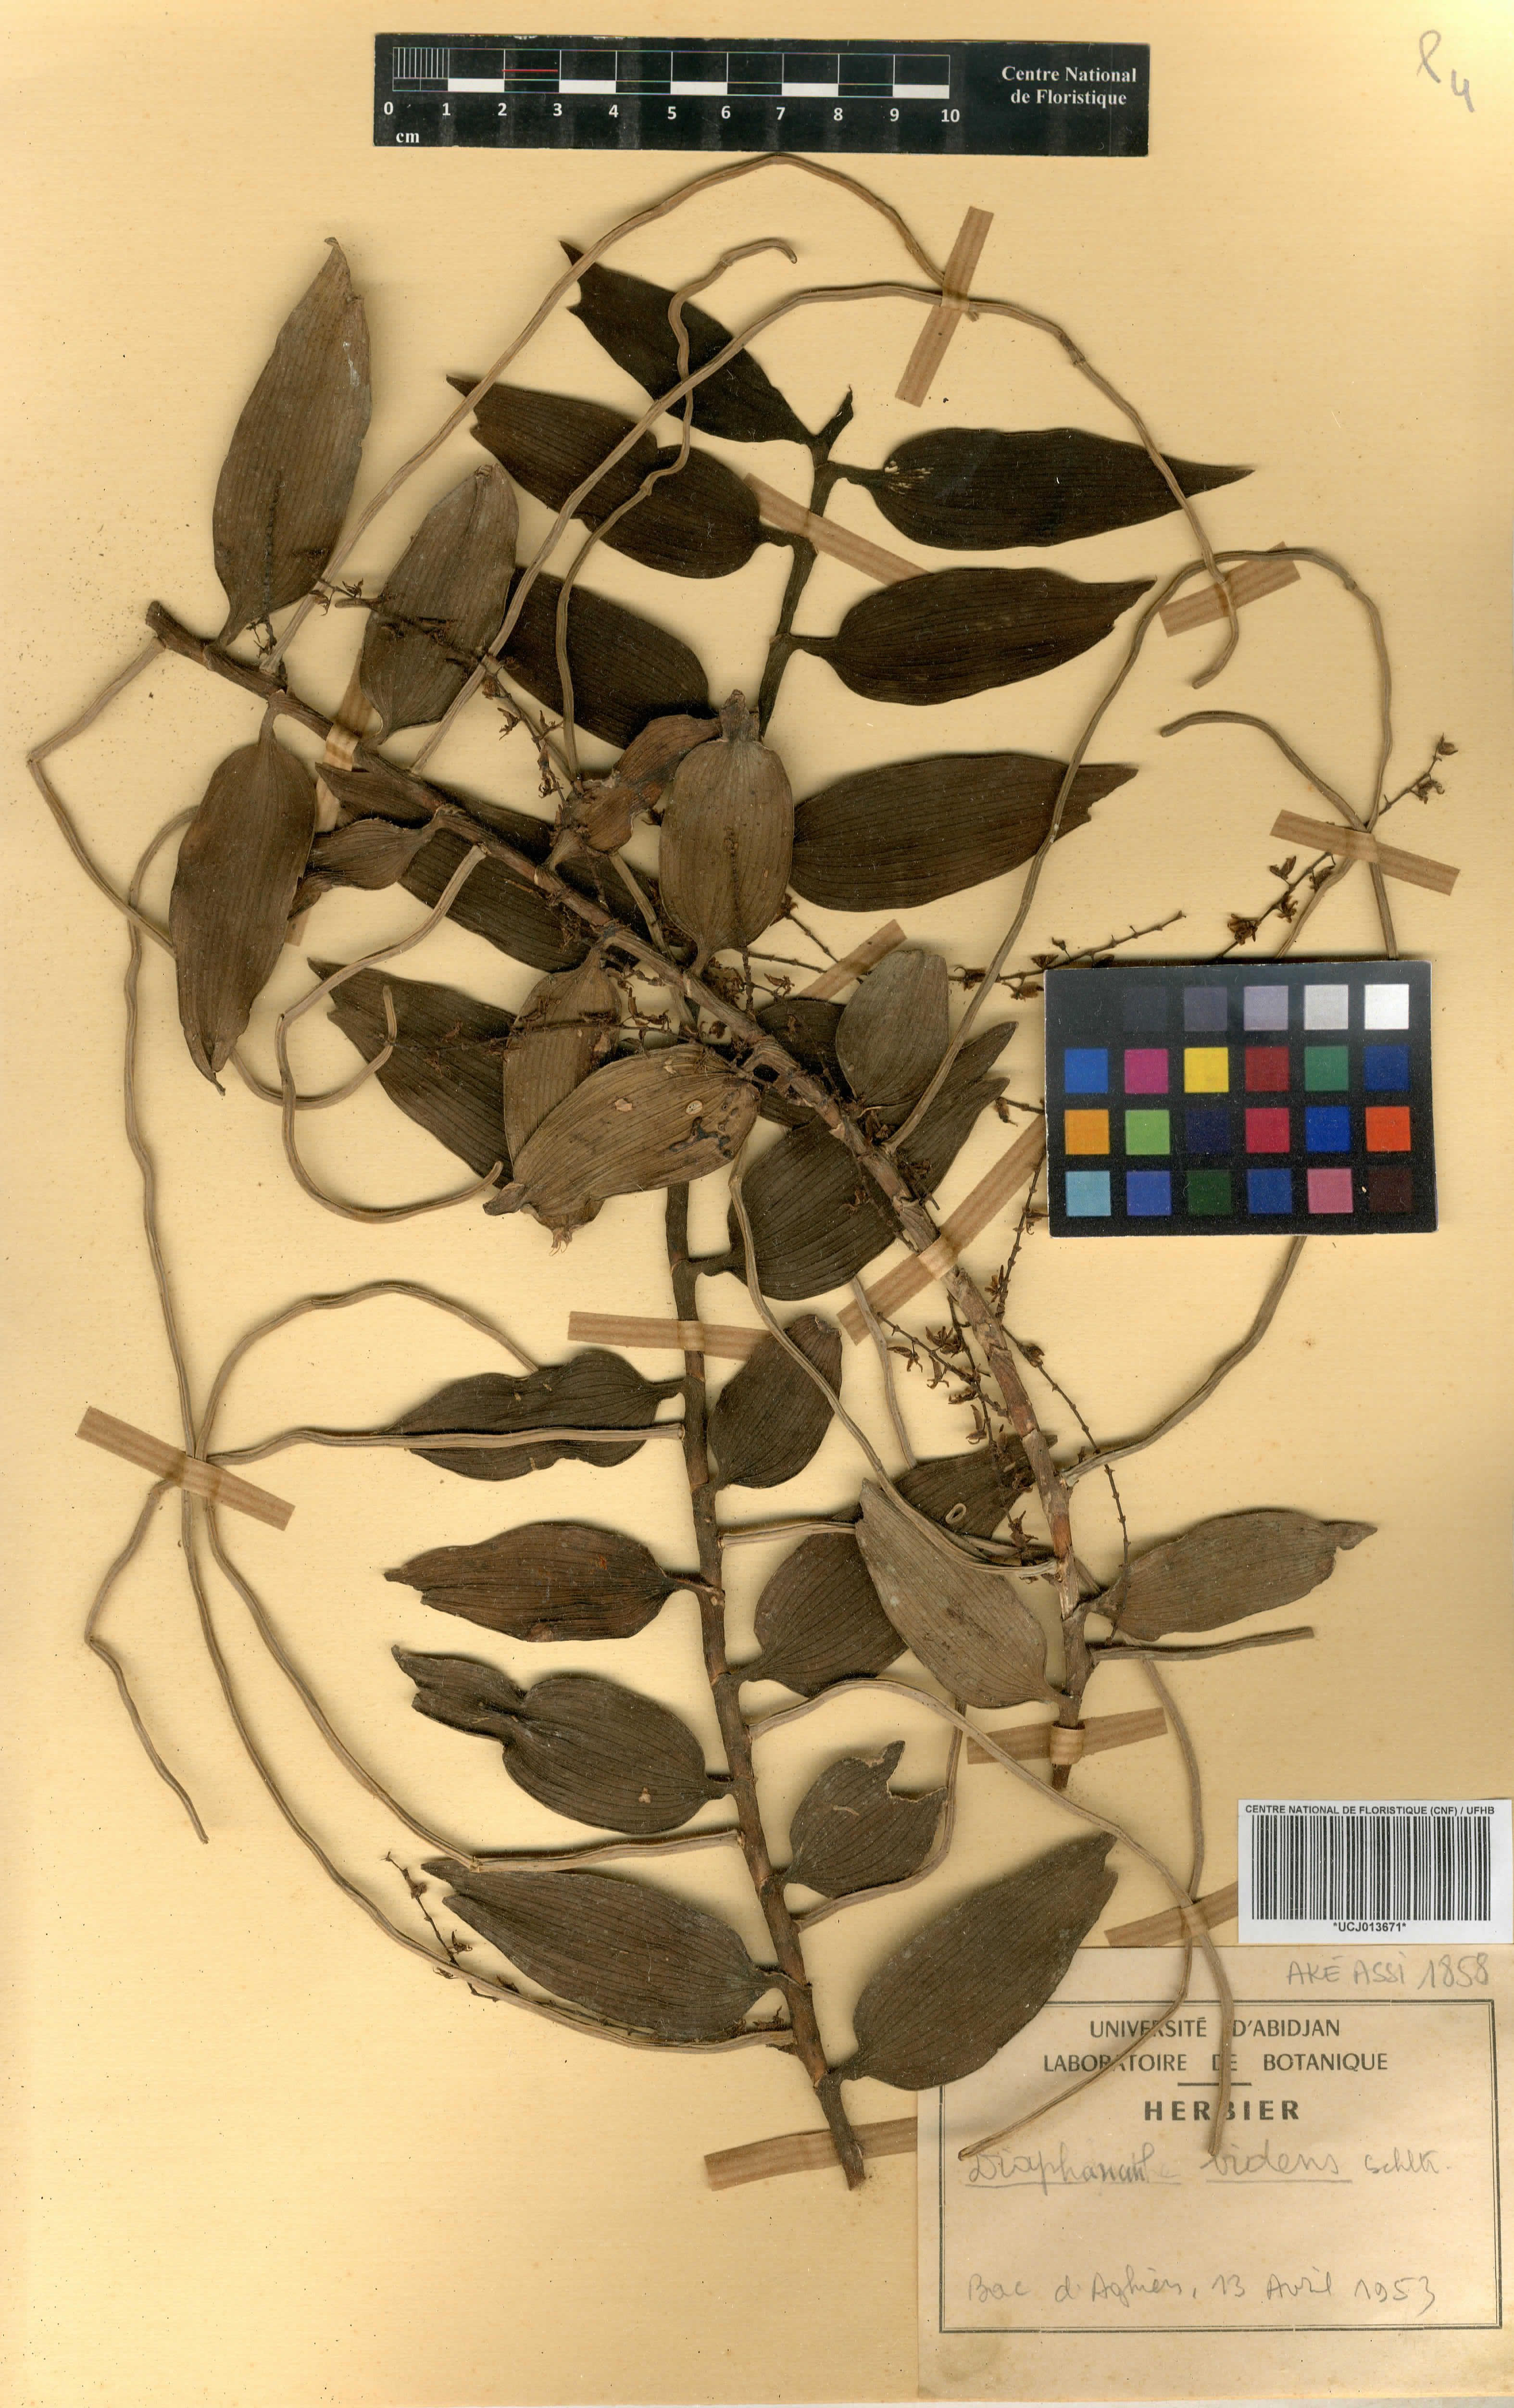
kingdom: Plantae
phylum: Tracheophyta
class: Liliopsida
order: Asparagales
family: Orchidaceae
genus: Diaphananthe
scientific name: Diaphananthe bidens
